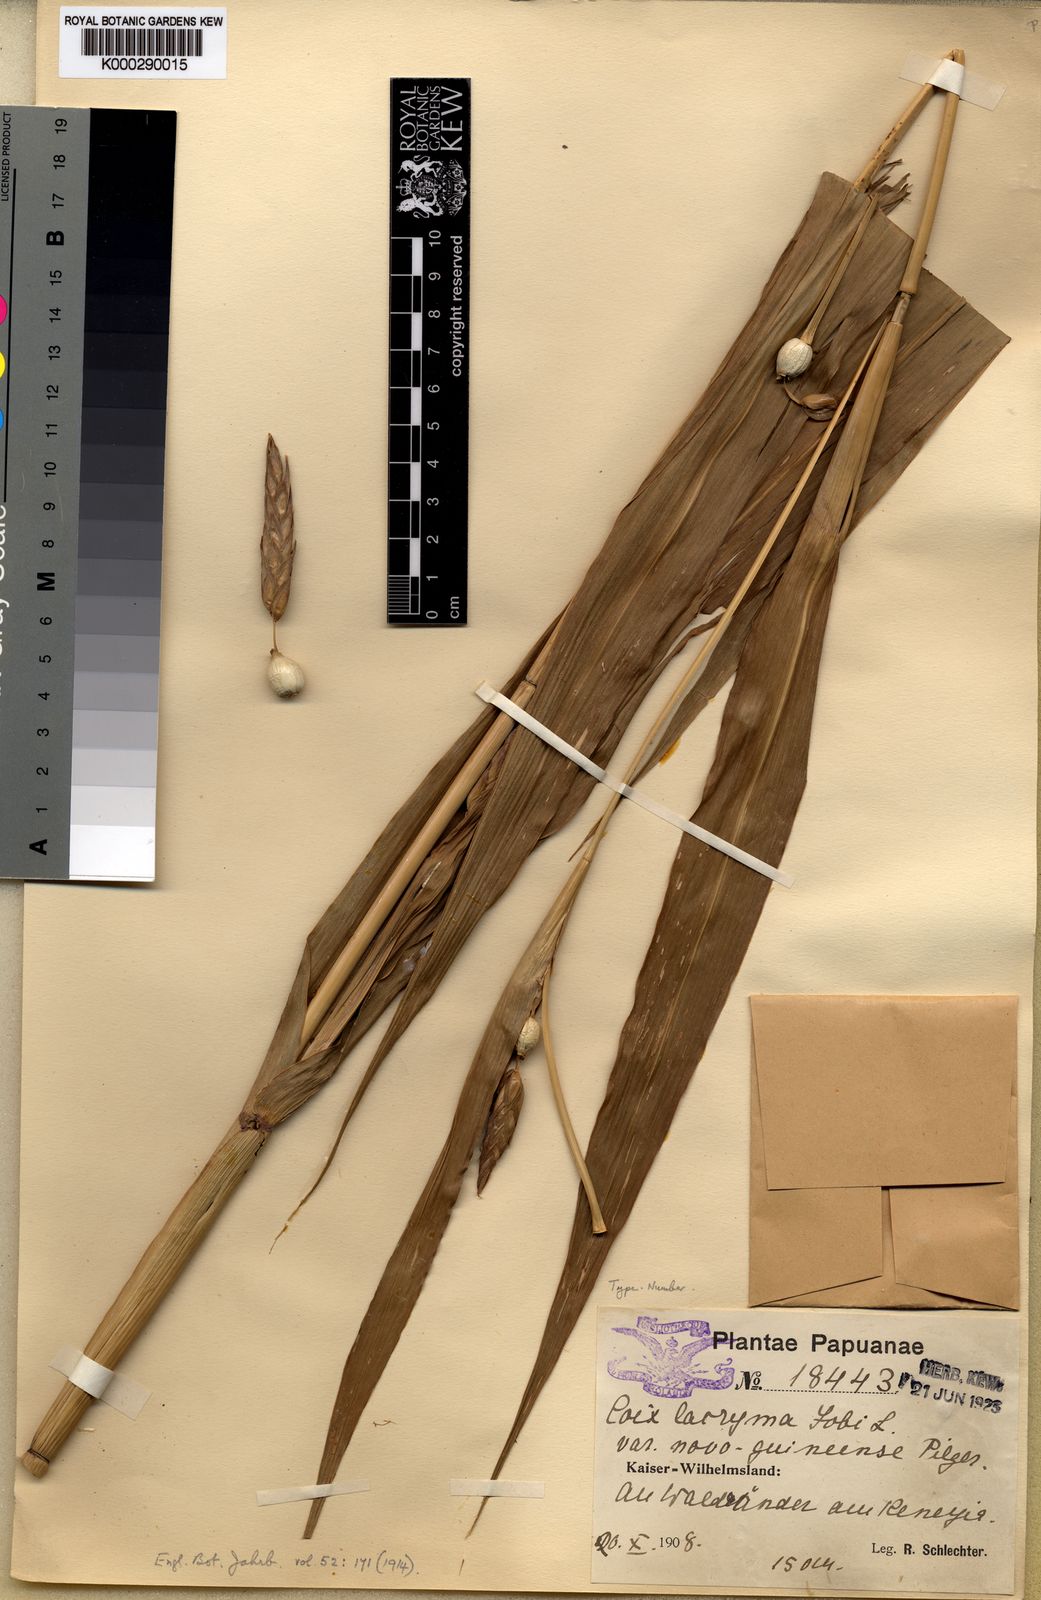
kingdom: Plantae
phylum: Tracheophyta
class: Liliopsida
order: Poales
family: Poaceae
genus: Coix
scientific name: Coix lacryma-jobi
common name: Job's tears
